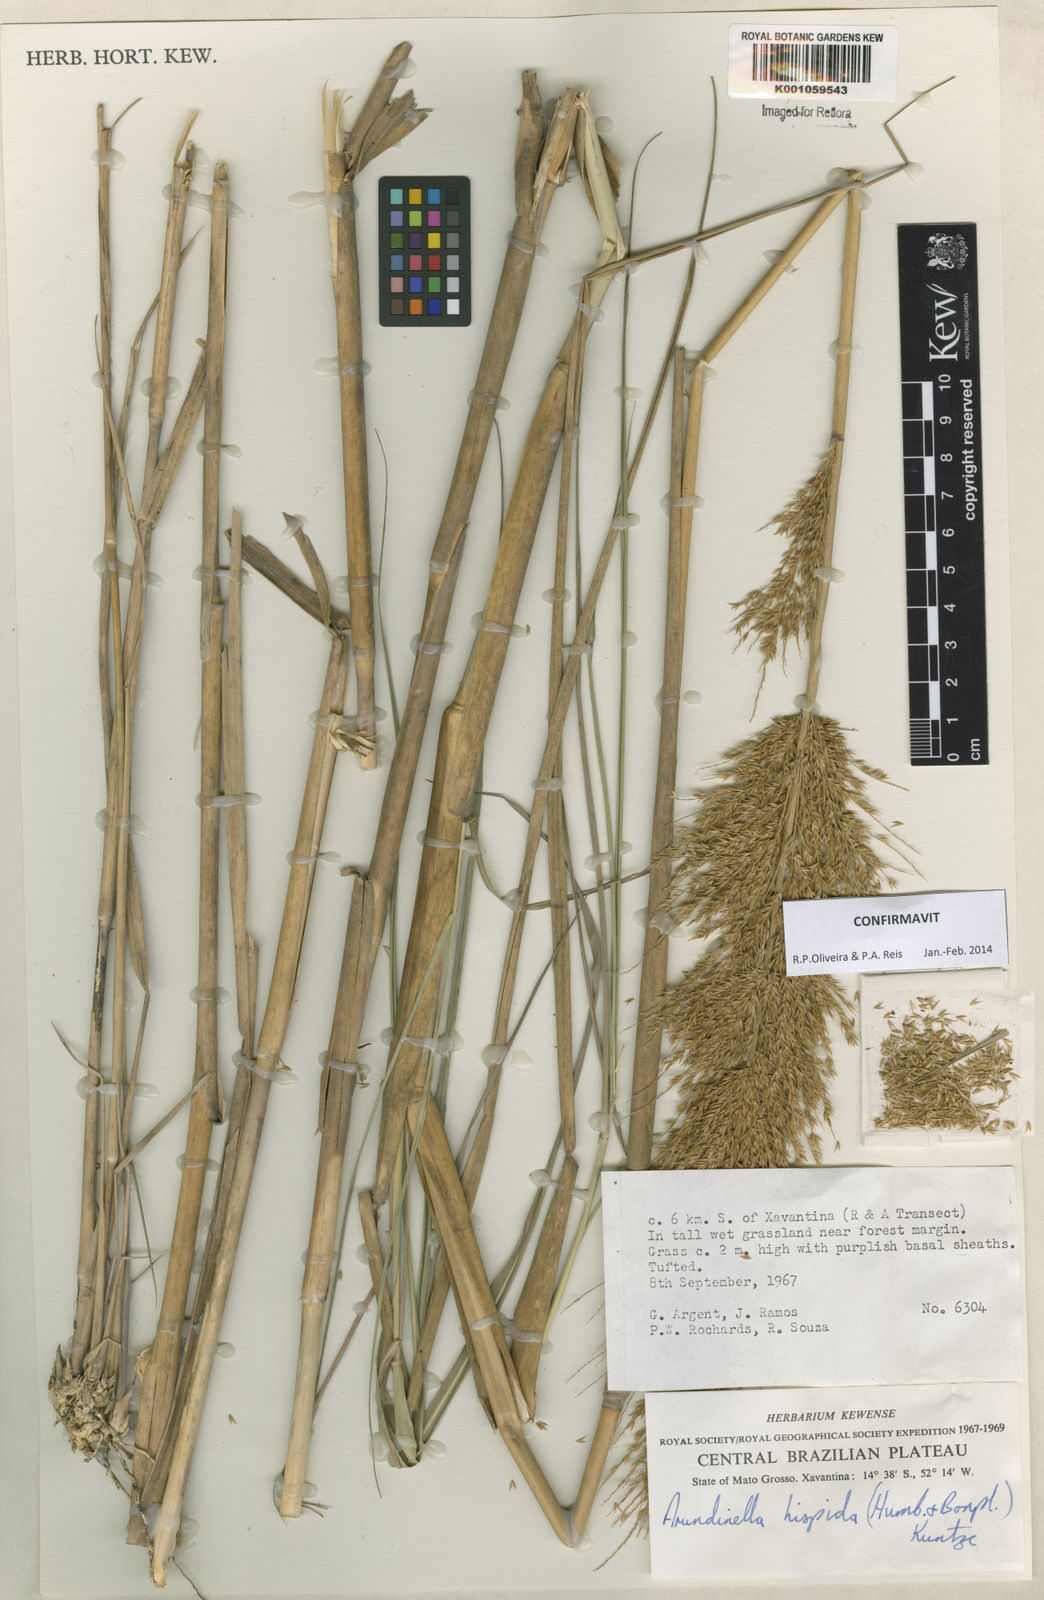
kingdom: Plantae
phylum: Tracheophyta
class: Liliopsida
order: Poales
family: Poaceae
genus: Arundinella
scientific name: Arundinella hispida
